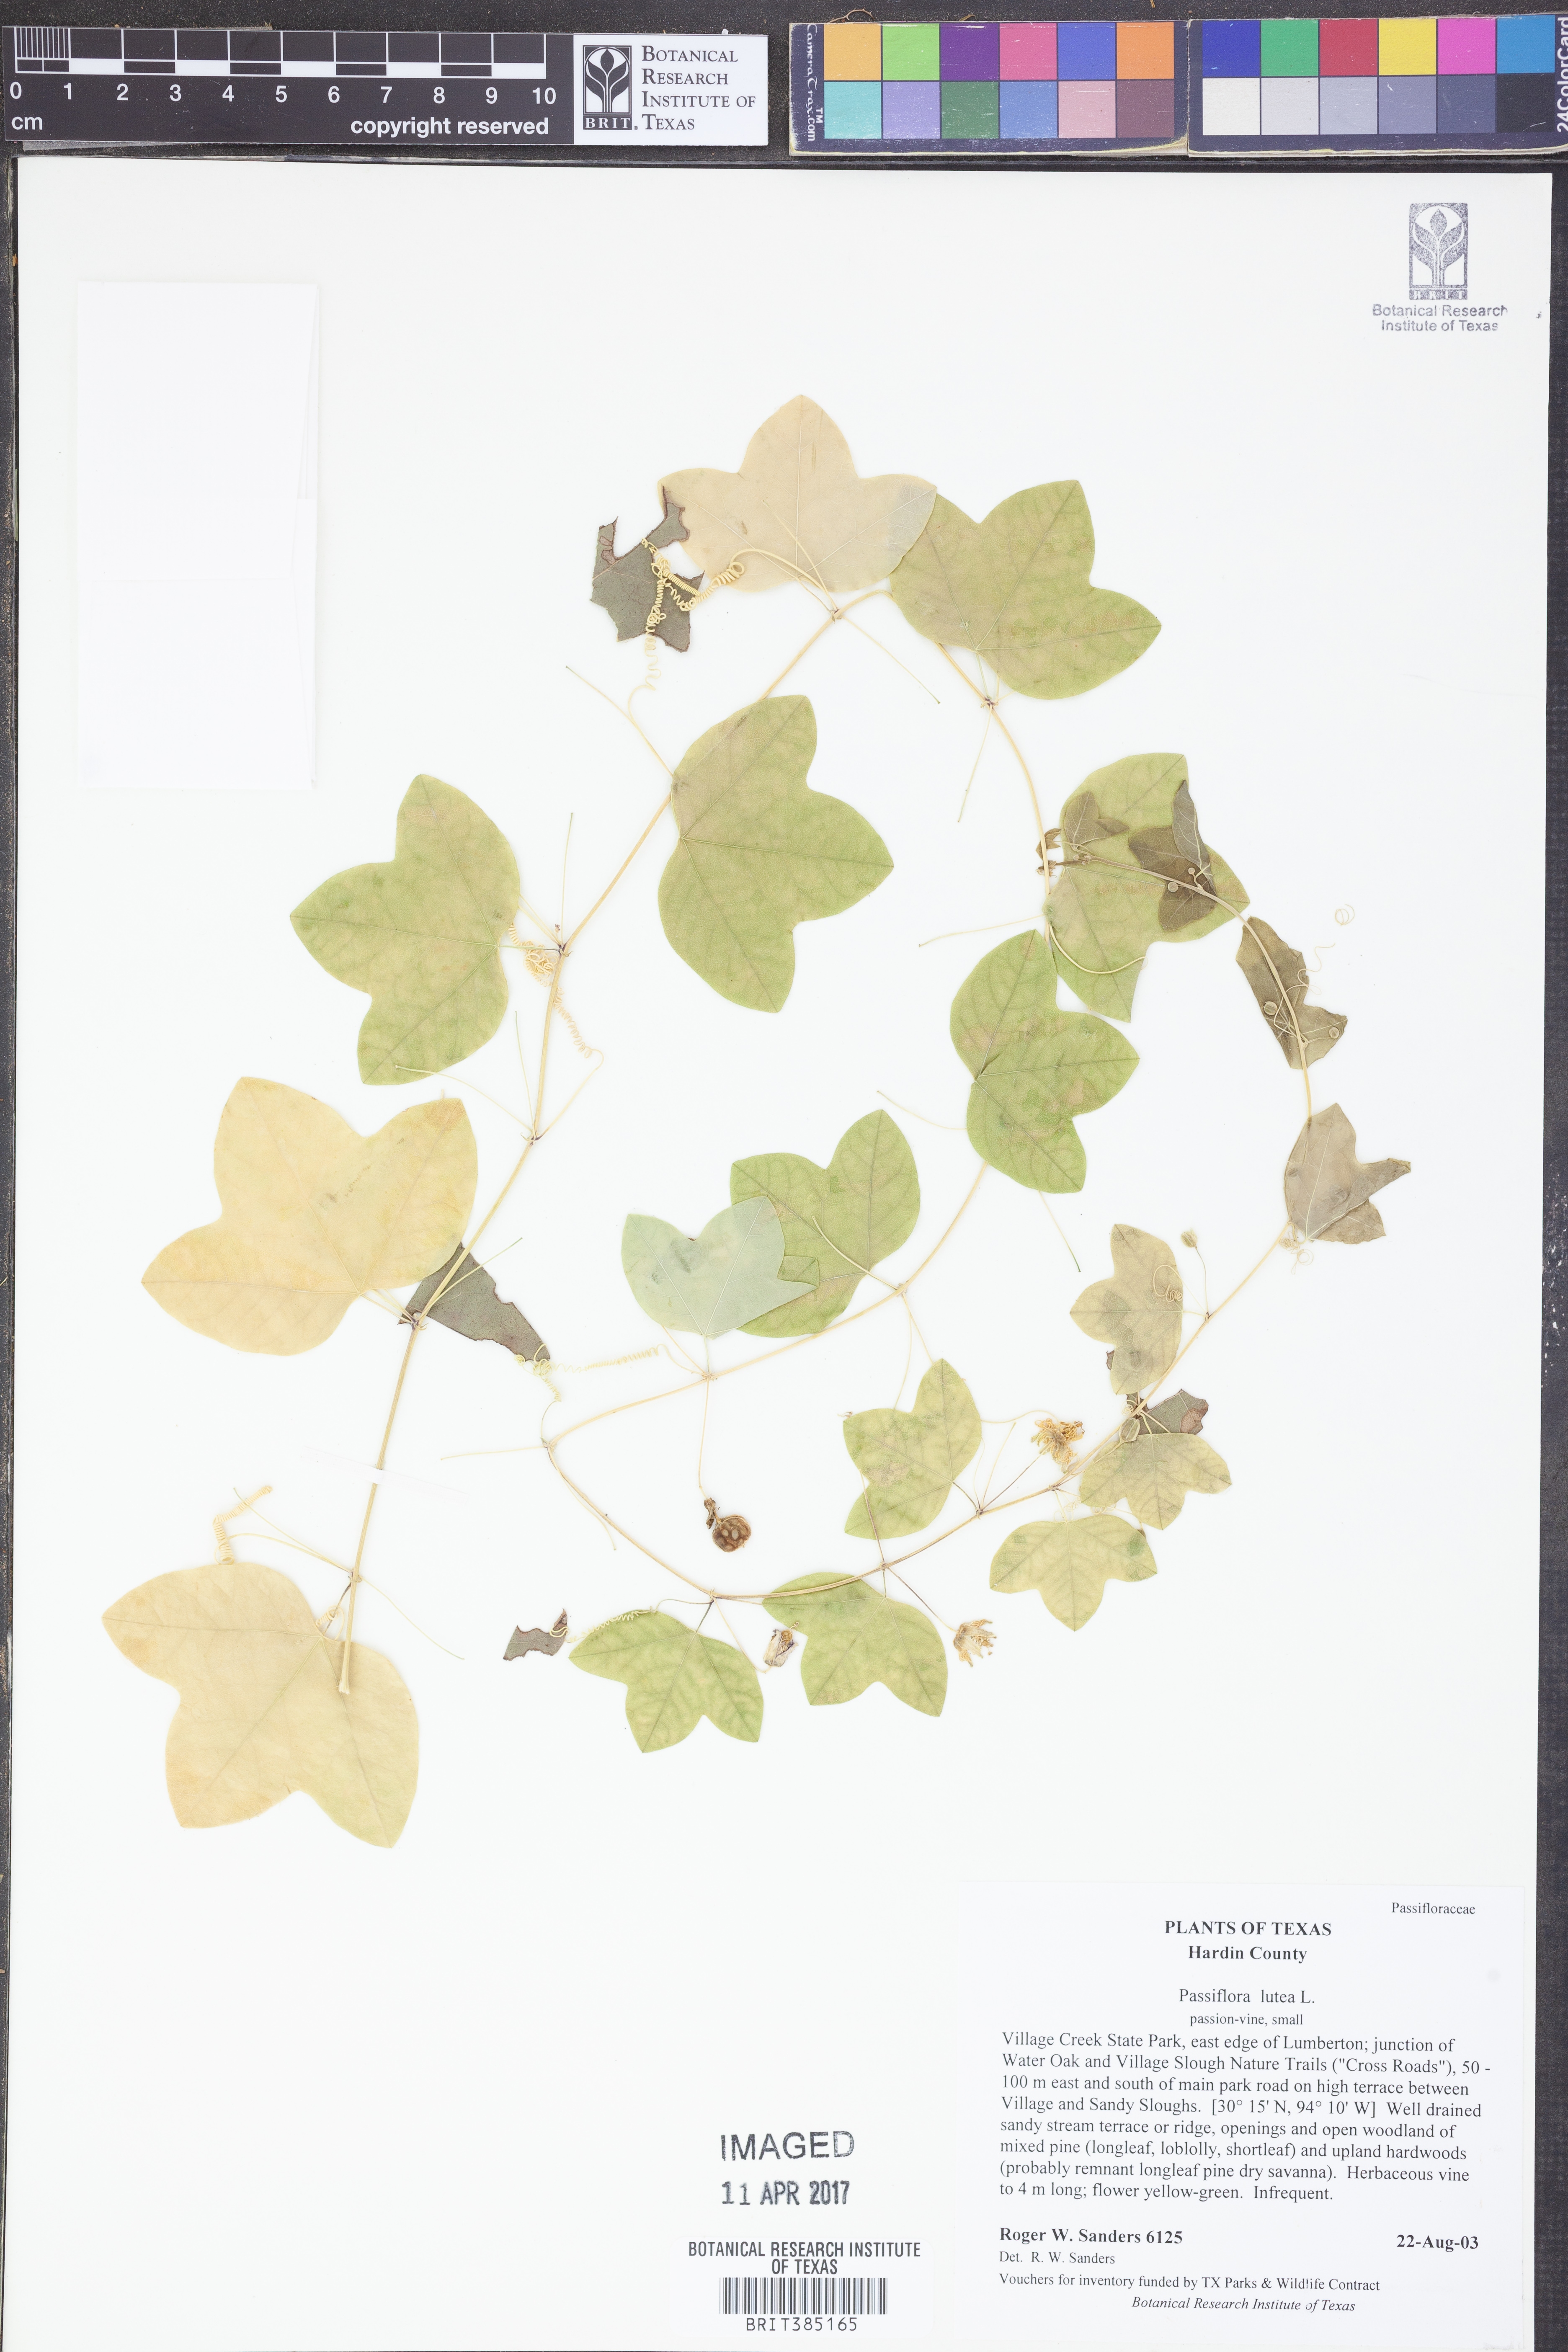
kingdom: Plantae
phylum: Tracheophyta
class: Magnoliopsida
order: Malpighiales
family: Passifloraceae
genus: Passiflora
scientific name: Passiflora lutea
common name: Yellow passionflower
